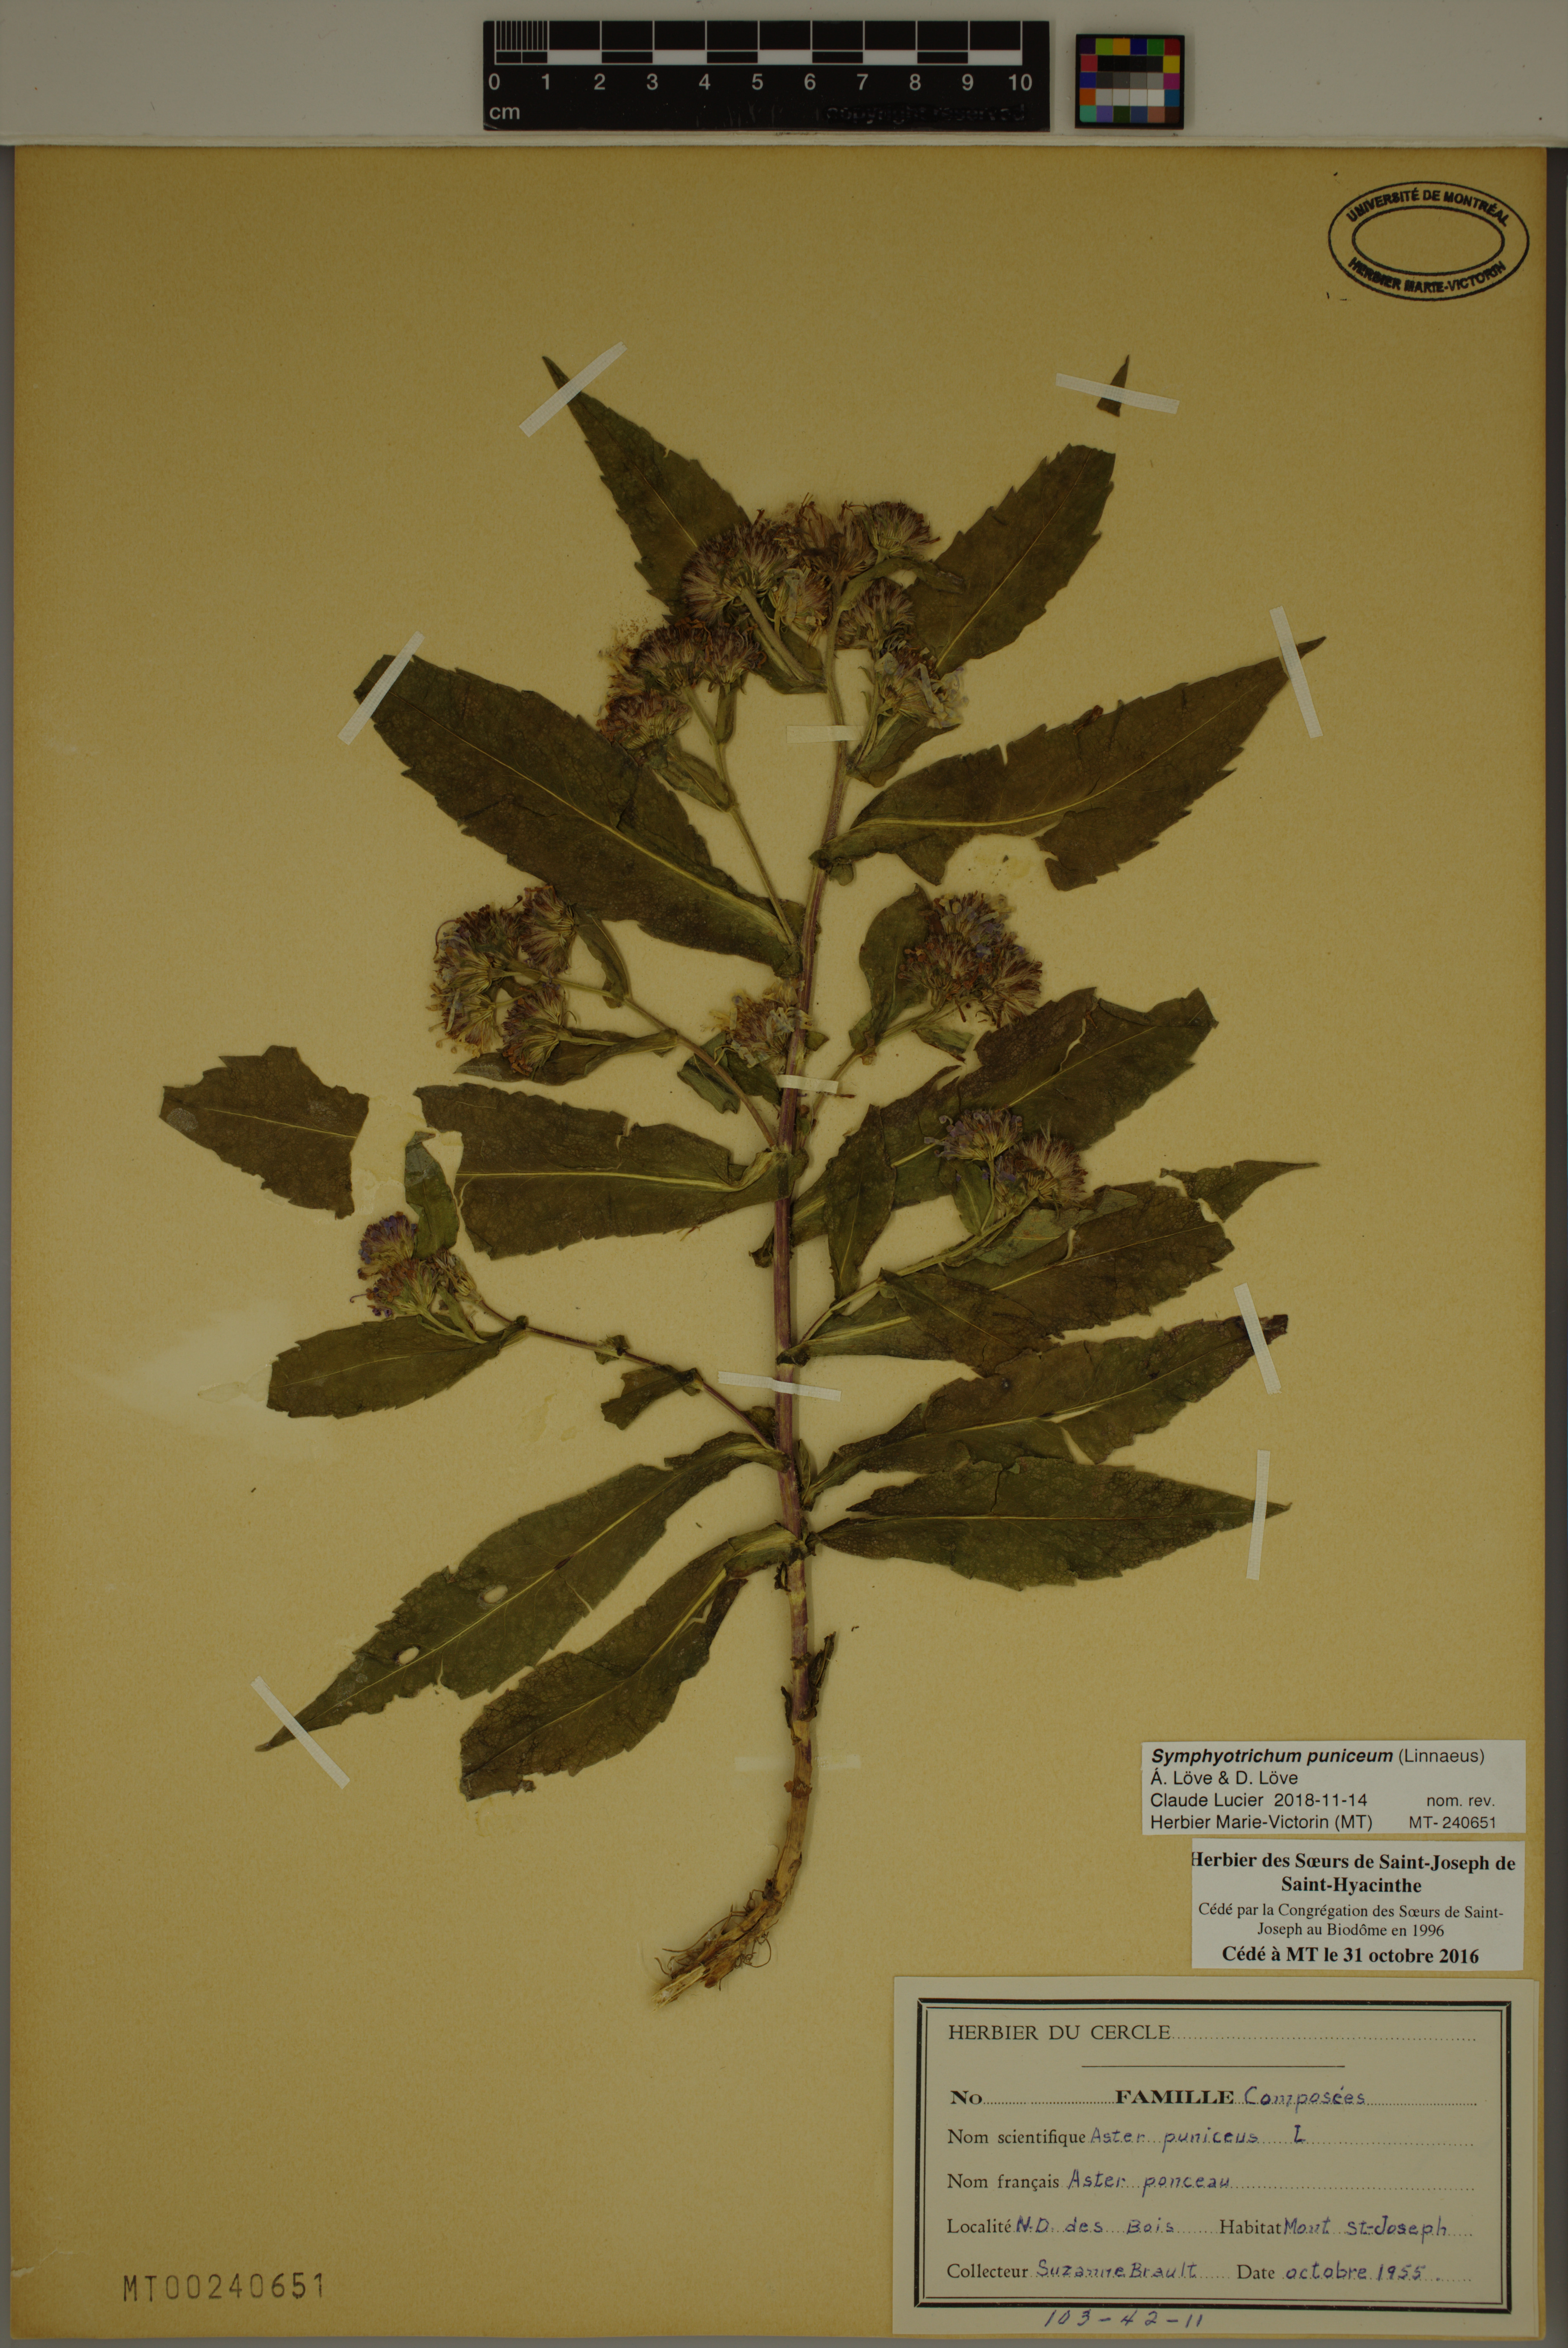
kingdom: Plantae
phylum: Tracheophyta
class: Magnoliopsida
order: Asterales
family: Asteraceae
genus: Symphyotrichum
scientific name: Symphyotrichum puniceum
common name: Bog aster
